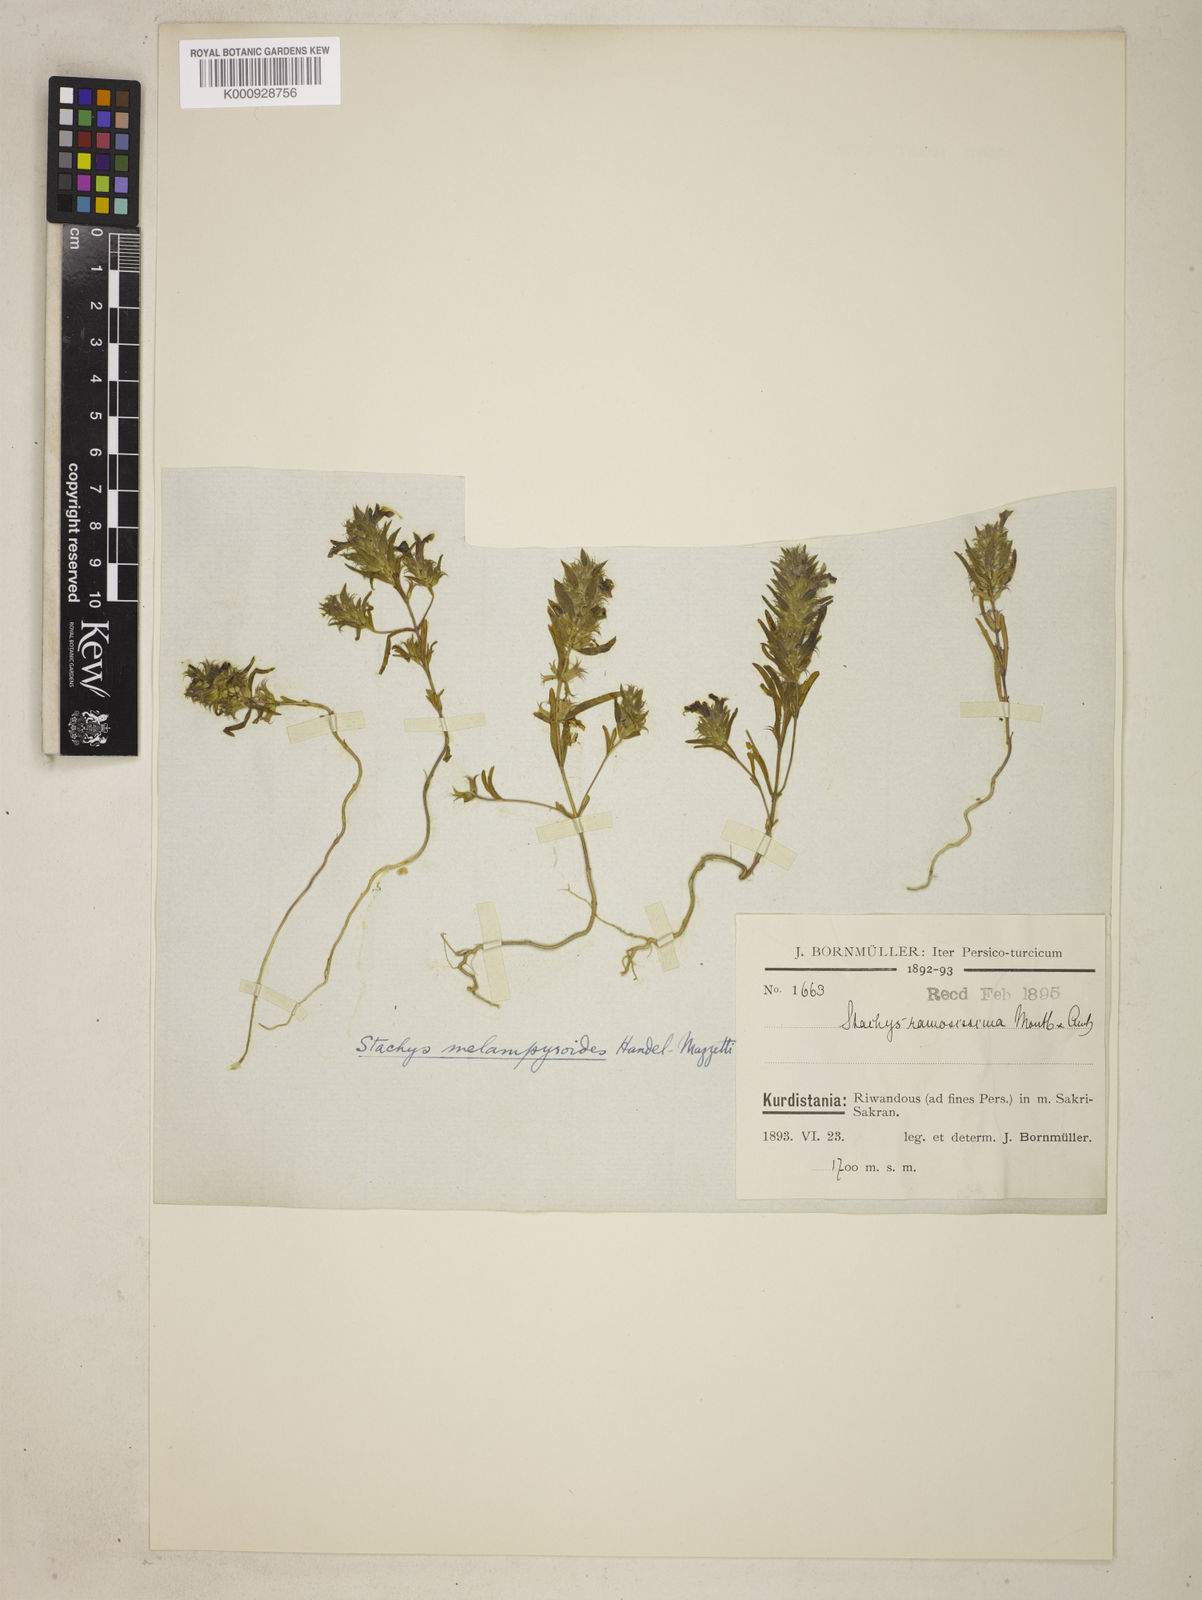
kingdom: Plantae
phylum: Tracheophyta
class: Magnoliopsida
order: Lamiales
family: Lamiaceae
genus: Stachys
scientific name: Stachys ramosissima
